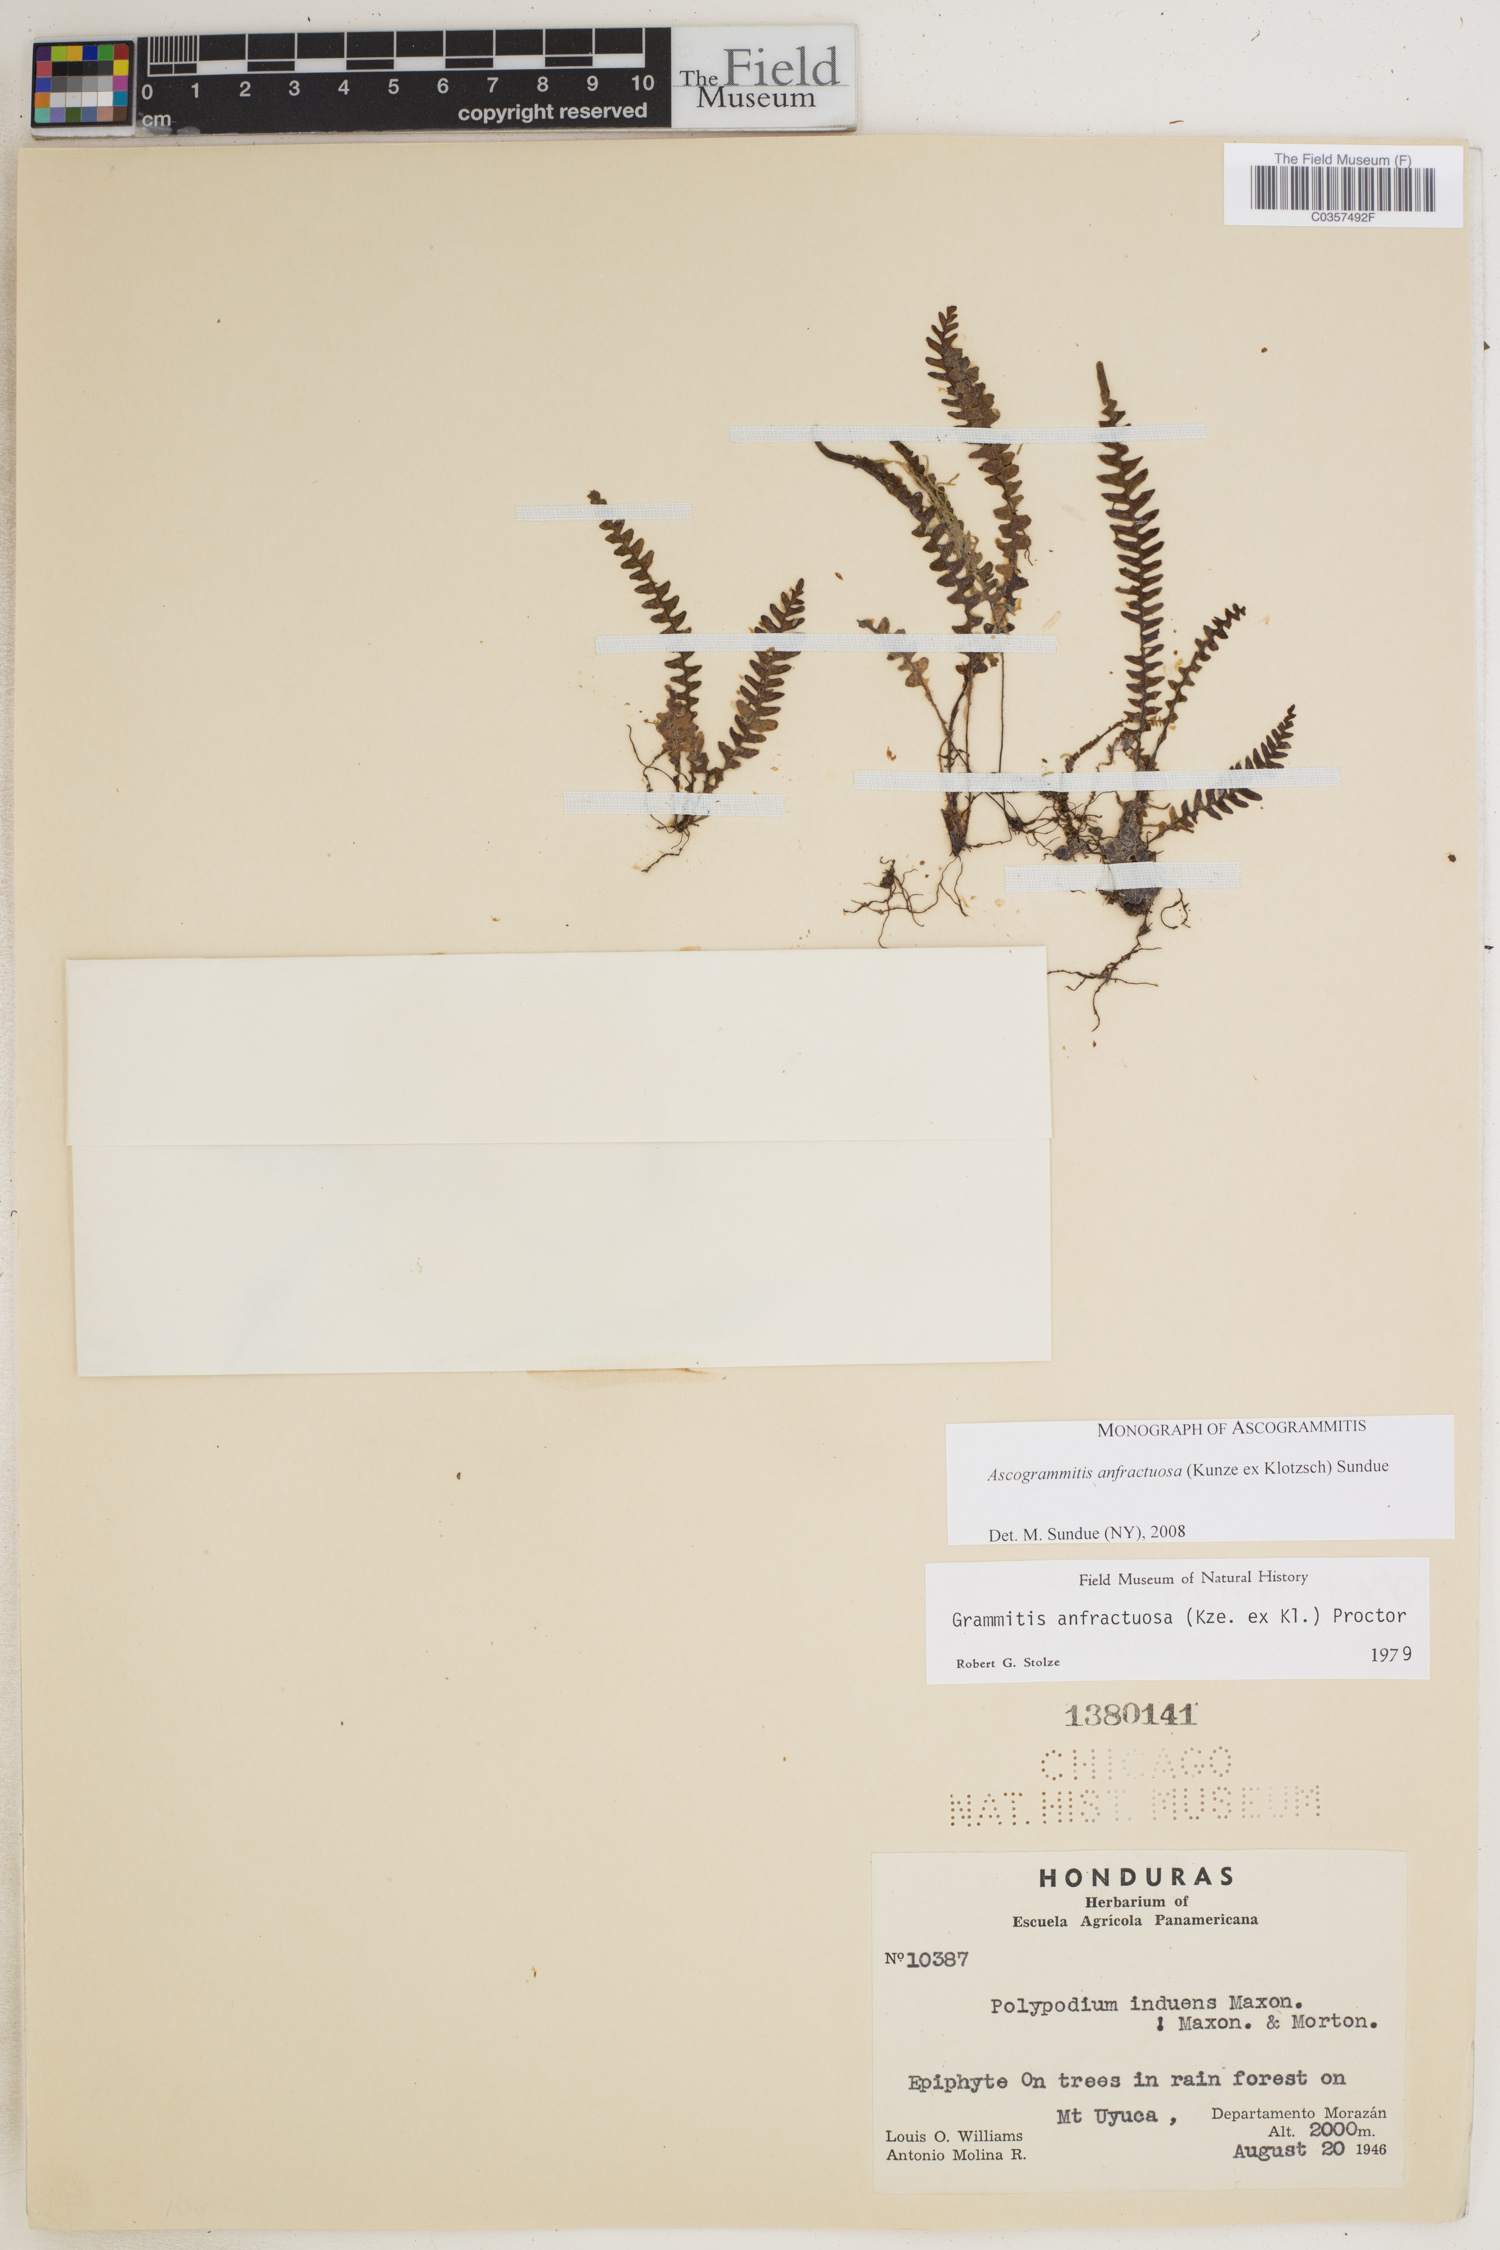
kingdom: Plantae
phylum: Tracheophyta
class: Polypodiopsida
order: Polypodiales
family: Polypodiaceae
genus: Ascogrammitis
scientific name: Ascogrammitis anfractuosa
